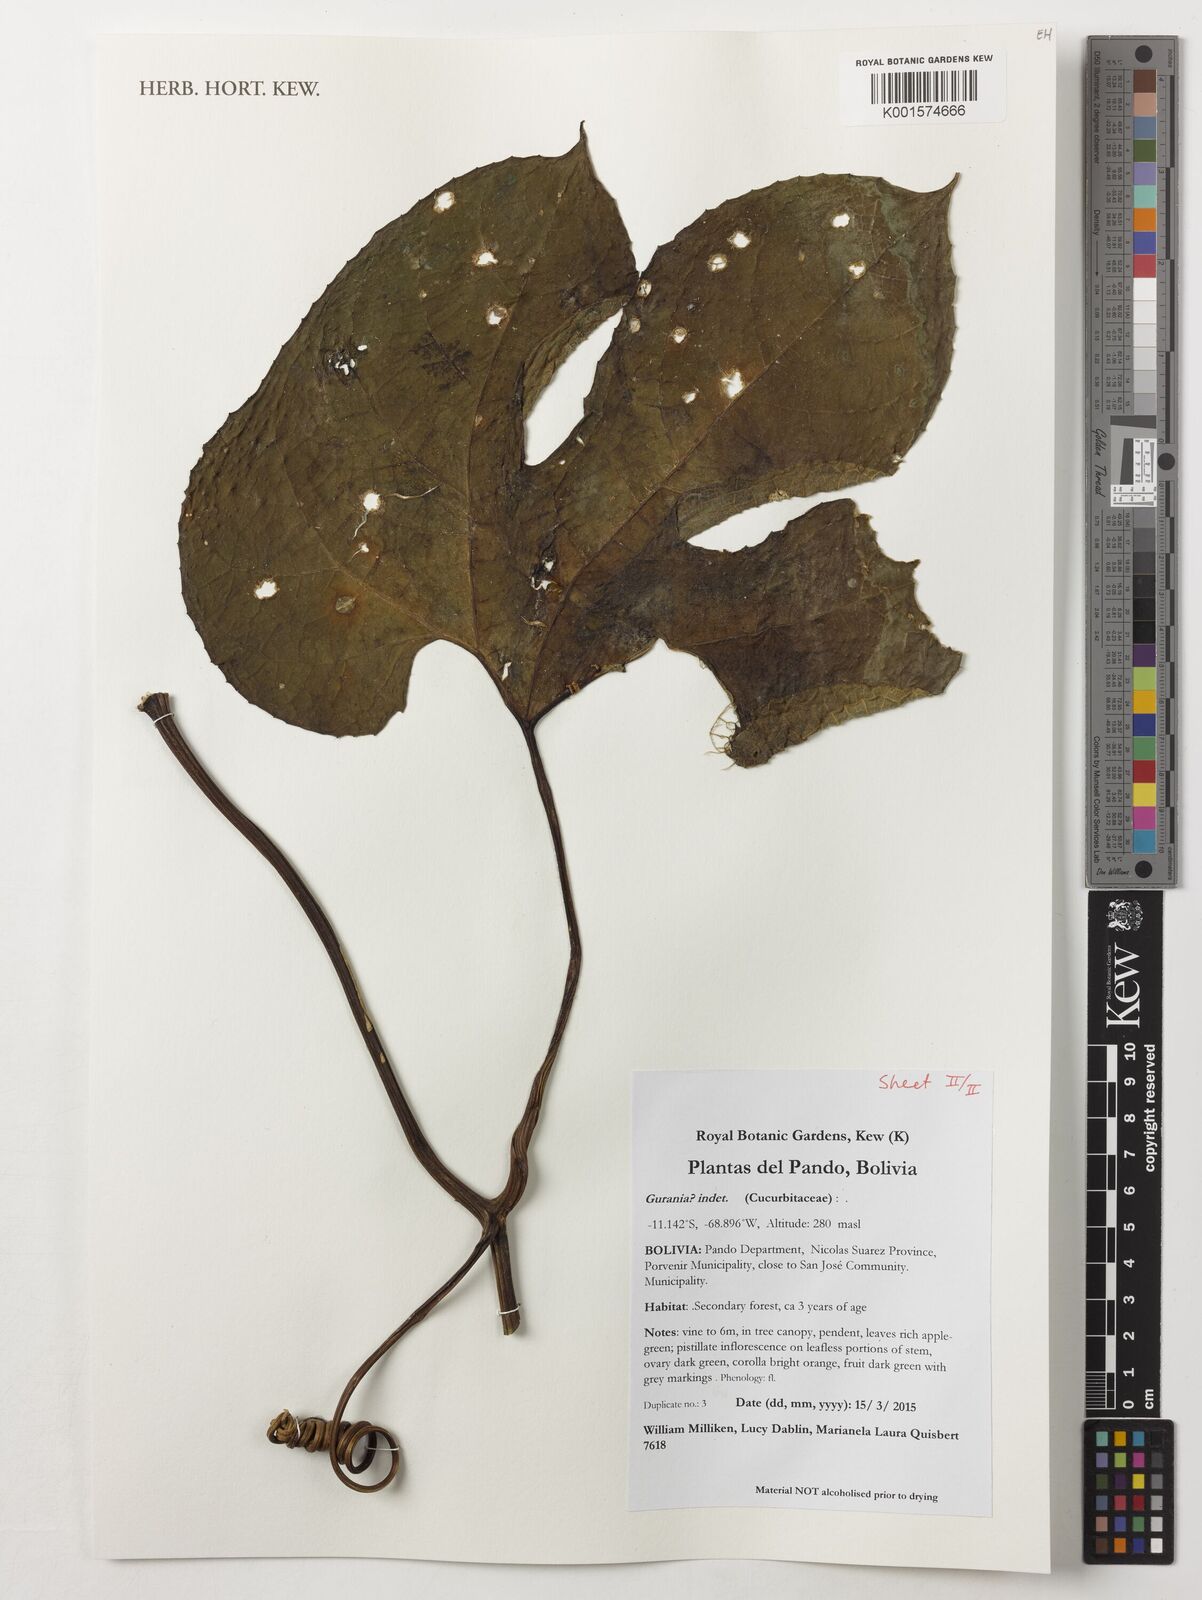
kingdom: Plantae
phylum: Tracheophyta
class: Magnoliopsida
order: Cucurbitales
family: Cucurbitaceae
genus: Gurania
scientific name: Gurania
